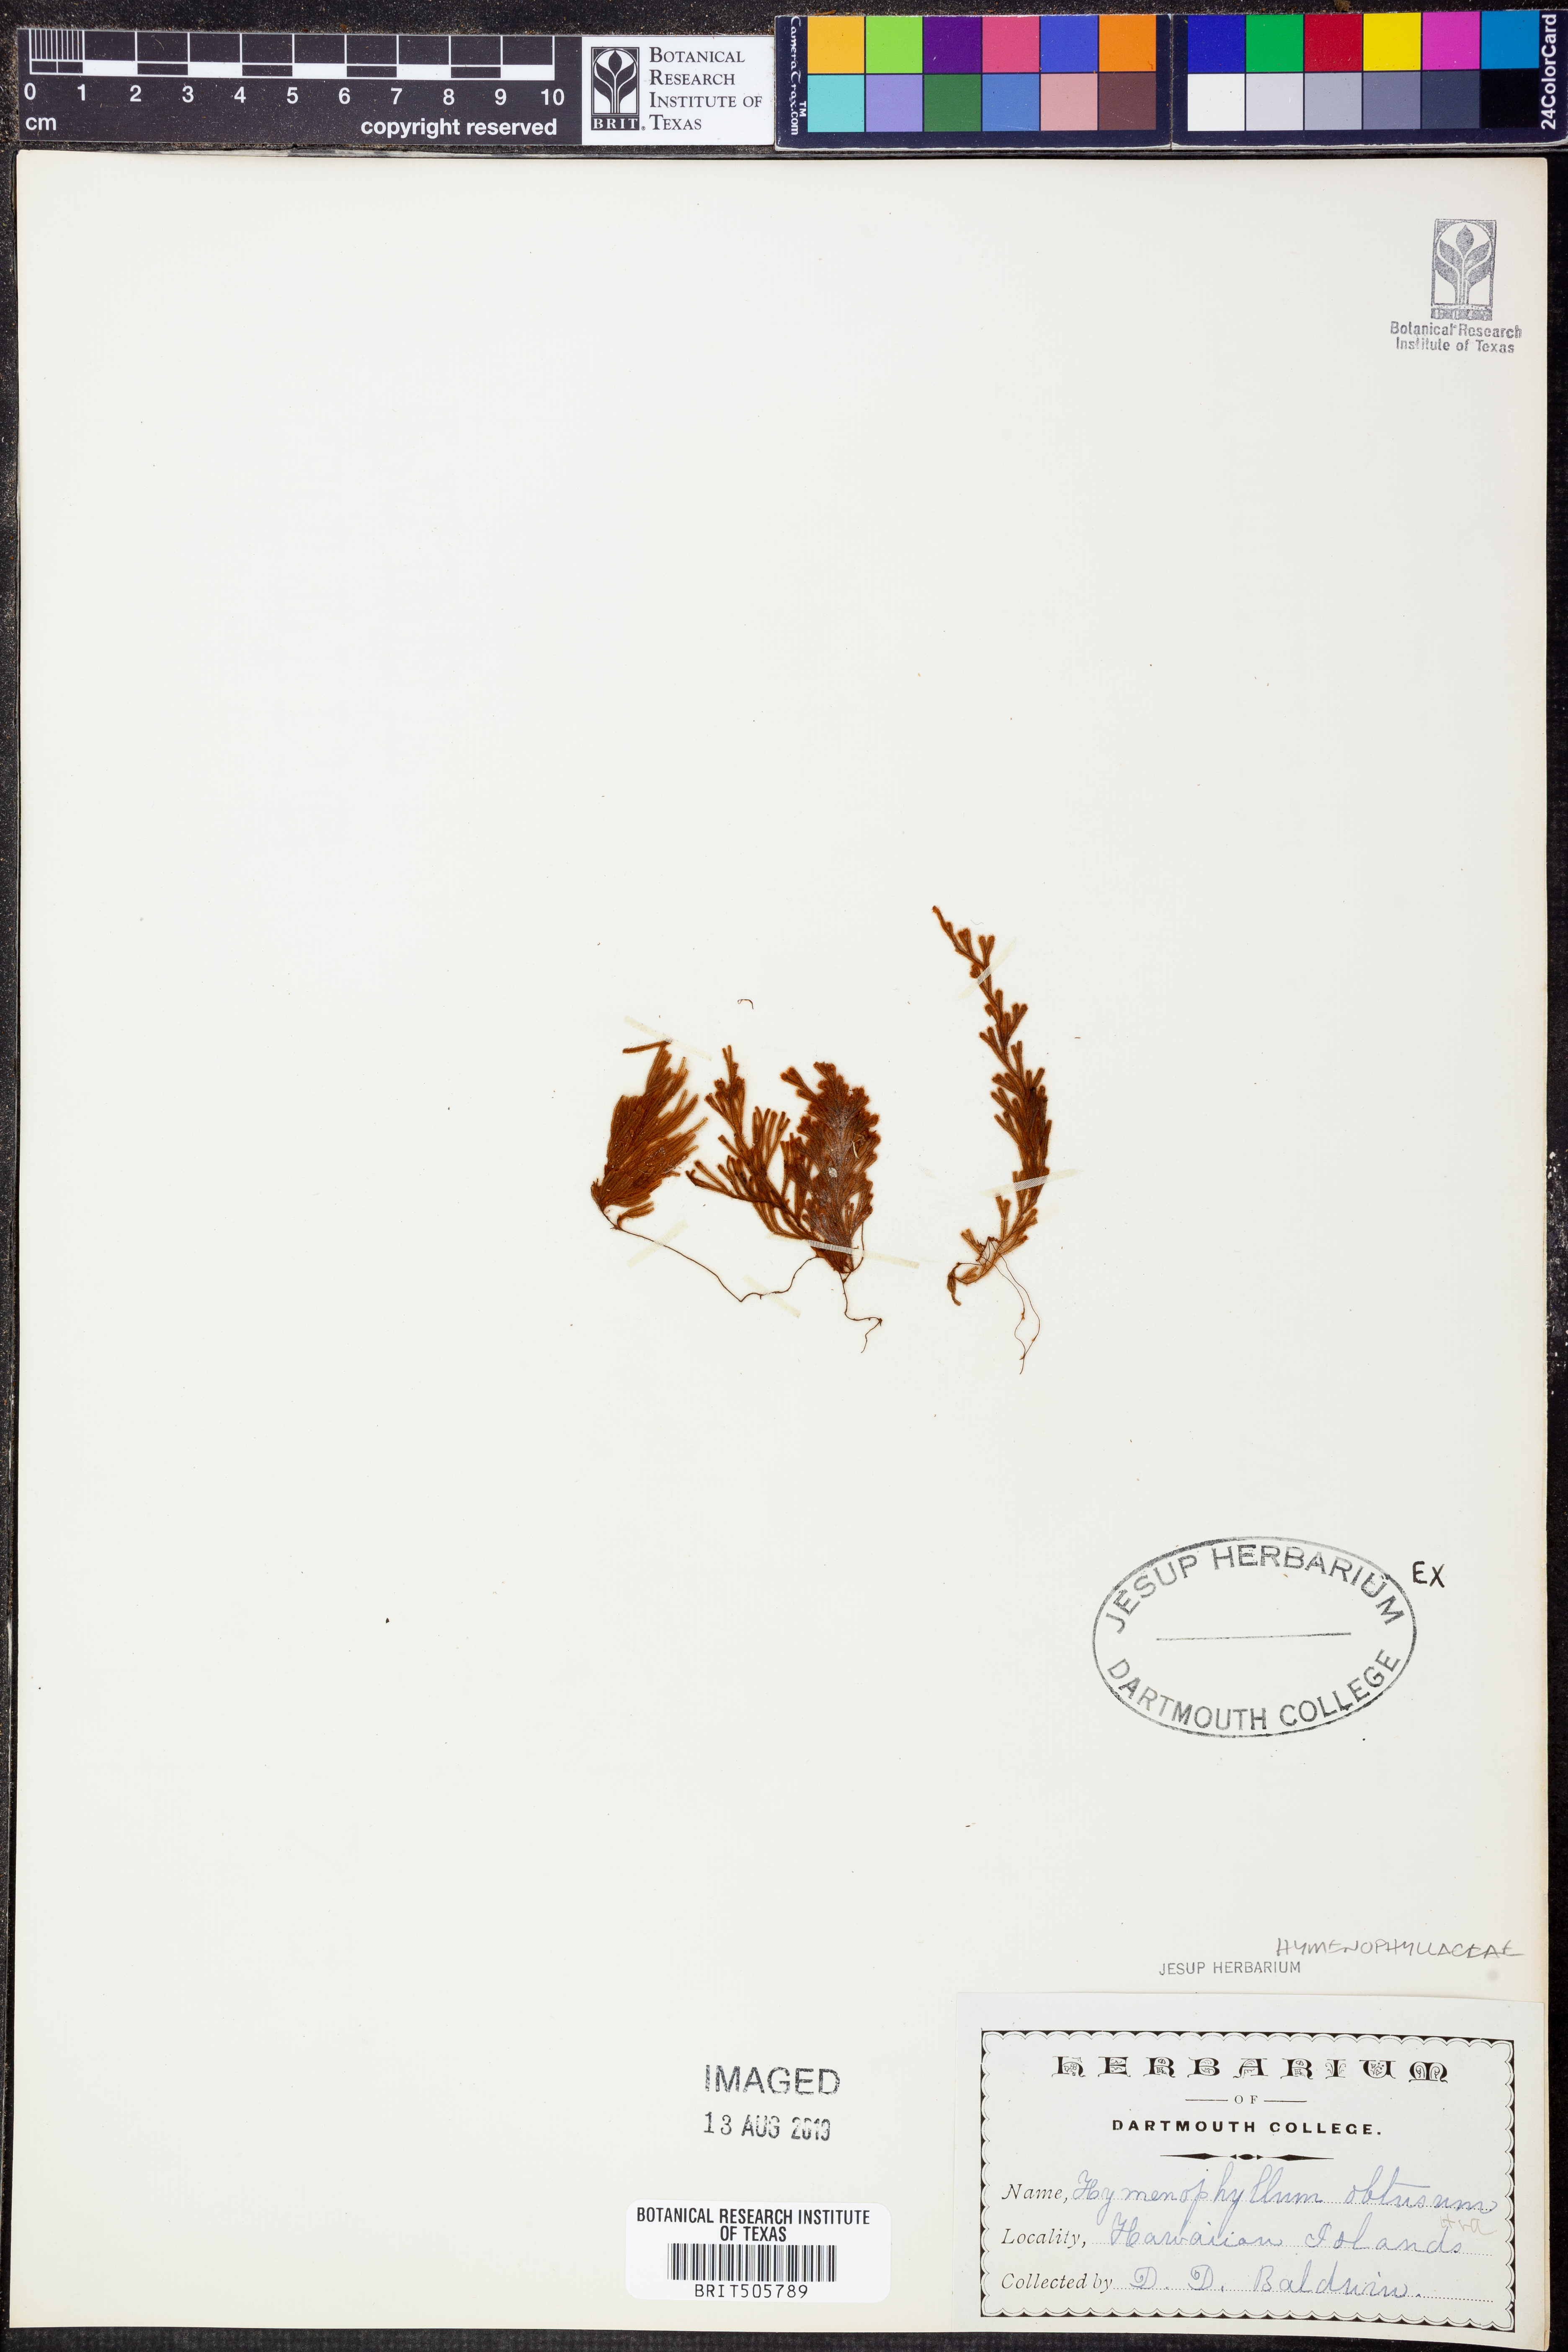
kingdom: Plantae
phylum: Tracheophyta
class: Polypodiopsida
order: Hymenophyllales
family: Hymenophyllaceae
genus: Hymenophyllum
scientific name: Hymenophyllum obtusum
